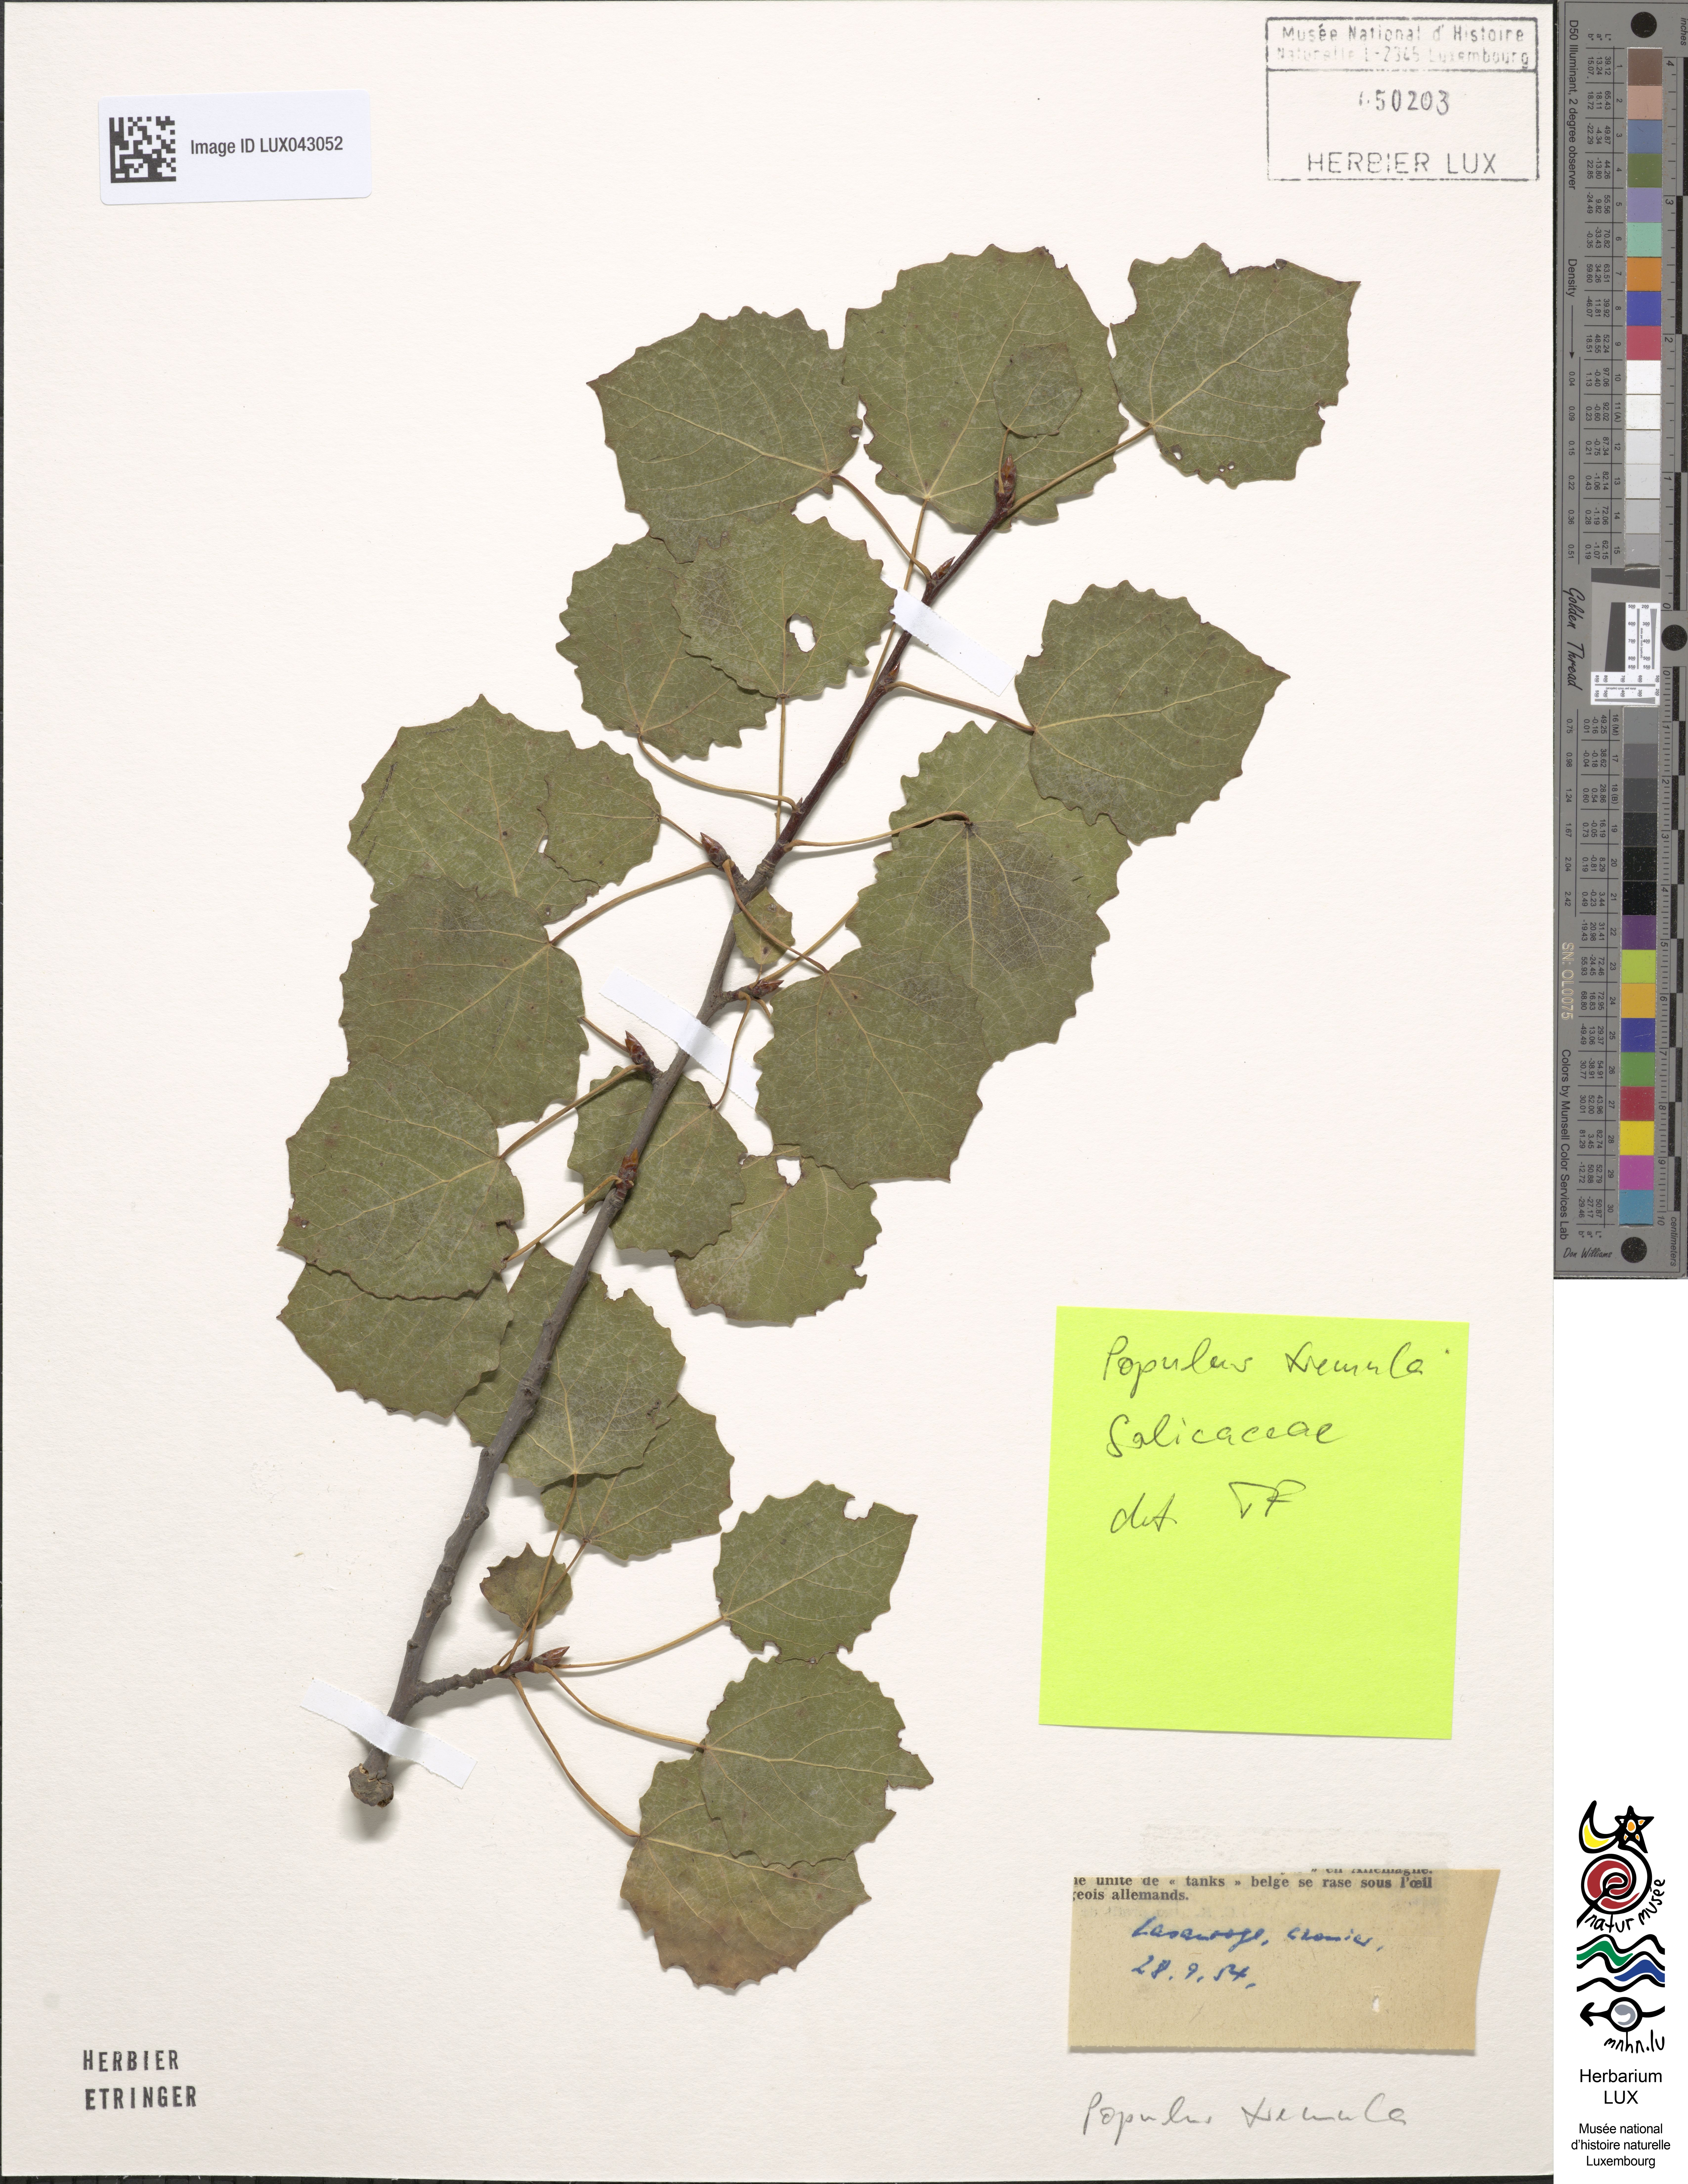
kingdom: Plantae
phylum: Tracheophyta
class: Magnoliopsida
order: Malpighiales
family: Salicaceae
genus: Populus
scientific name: Populus tremula
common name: European aspen
